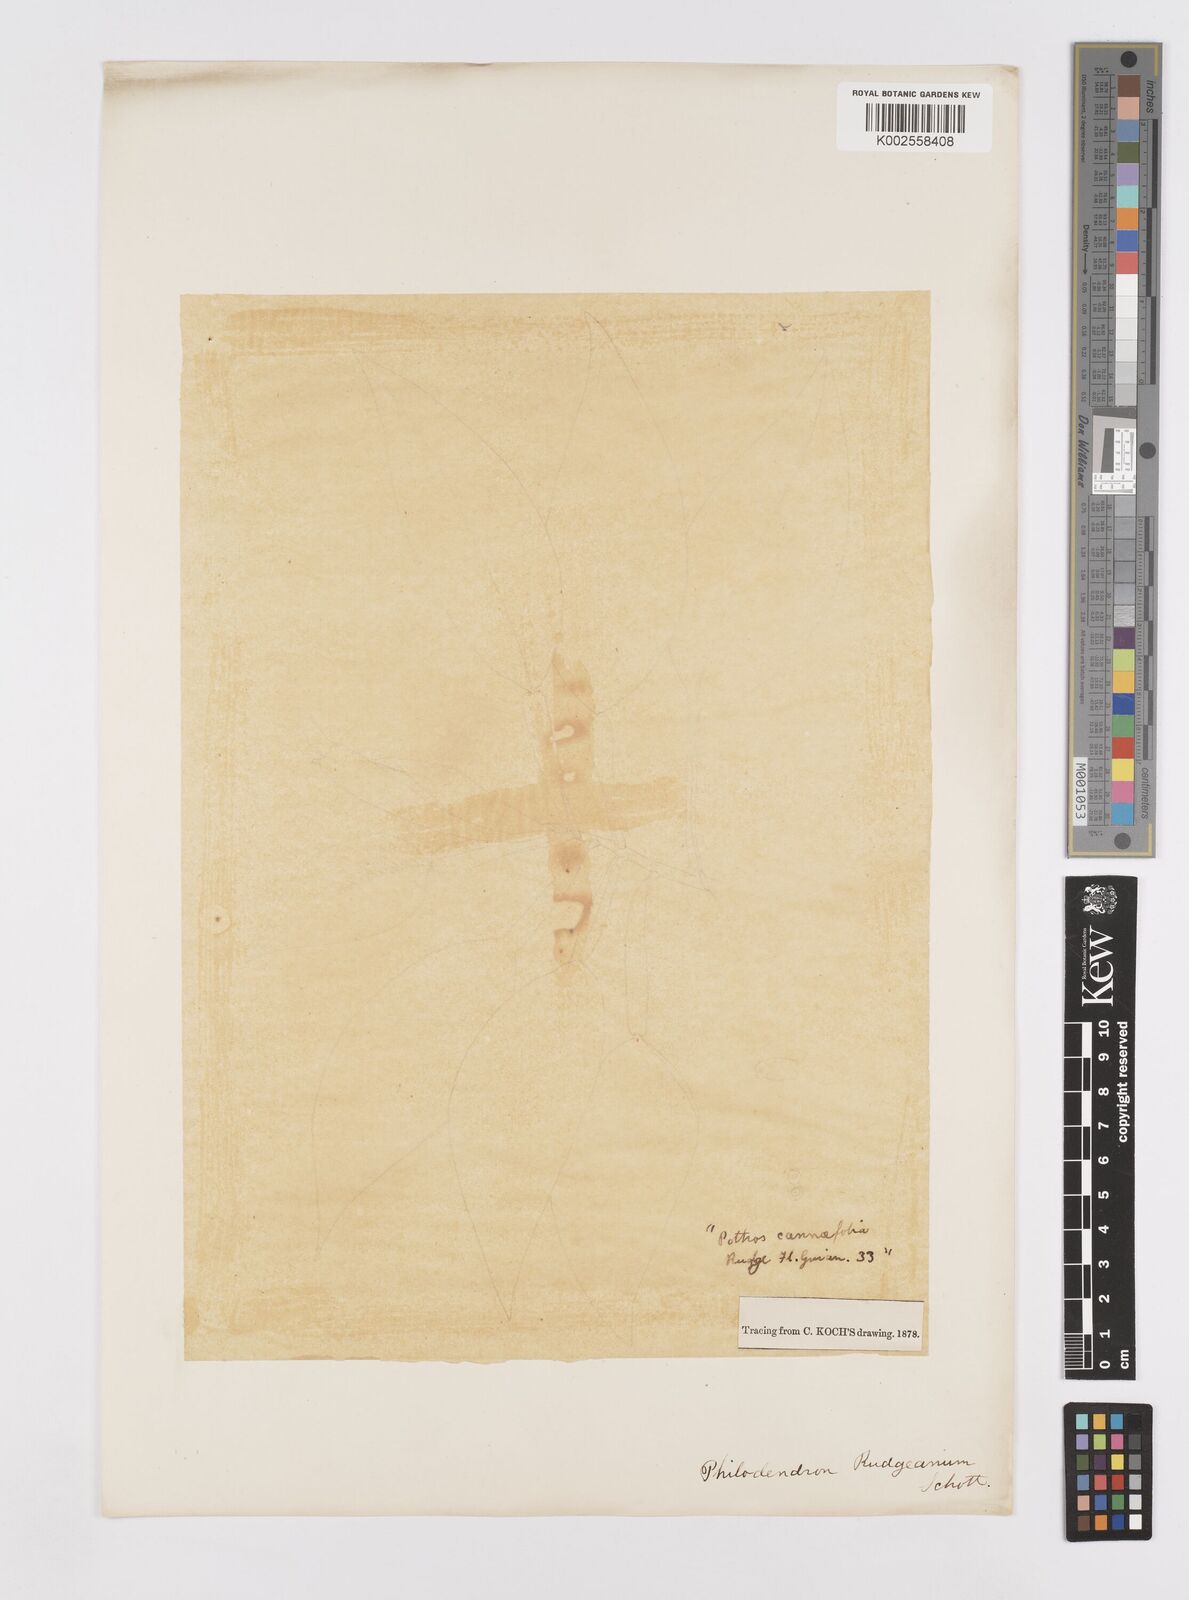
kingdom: Plantae
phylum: Tracheophyta
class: Liliopsida
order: Alismatales
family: Araceae
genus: Philodendron
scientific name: Philodendron rudgeanum
